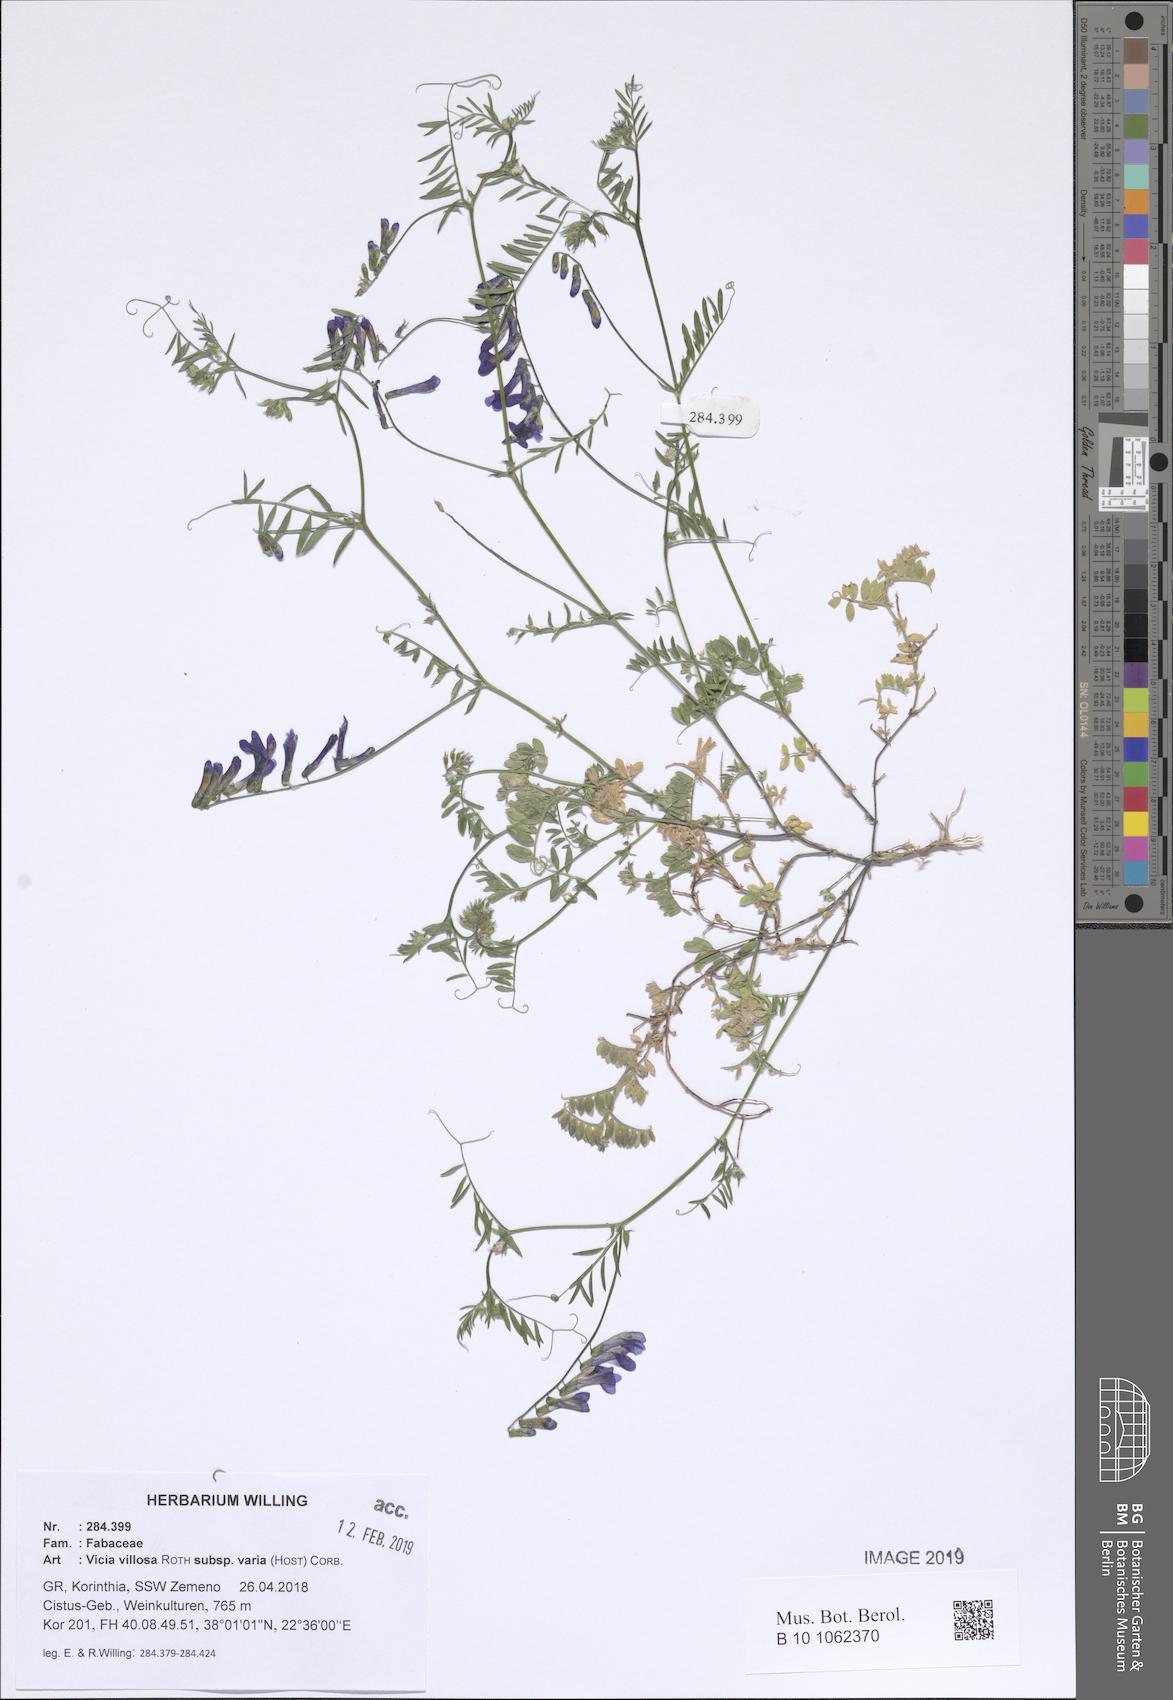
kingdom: Plantae
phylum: Tracheophyta
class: Magnoliopsida
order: Fabales
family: Fabaceae
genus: Vicia
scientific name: Vicia villosa
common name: Fodder vetch
